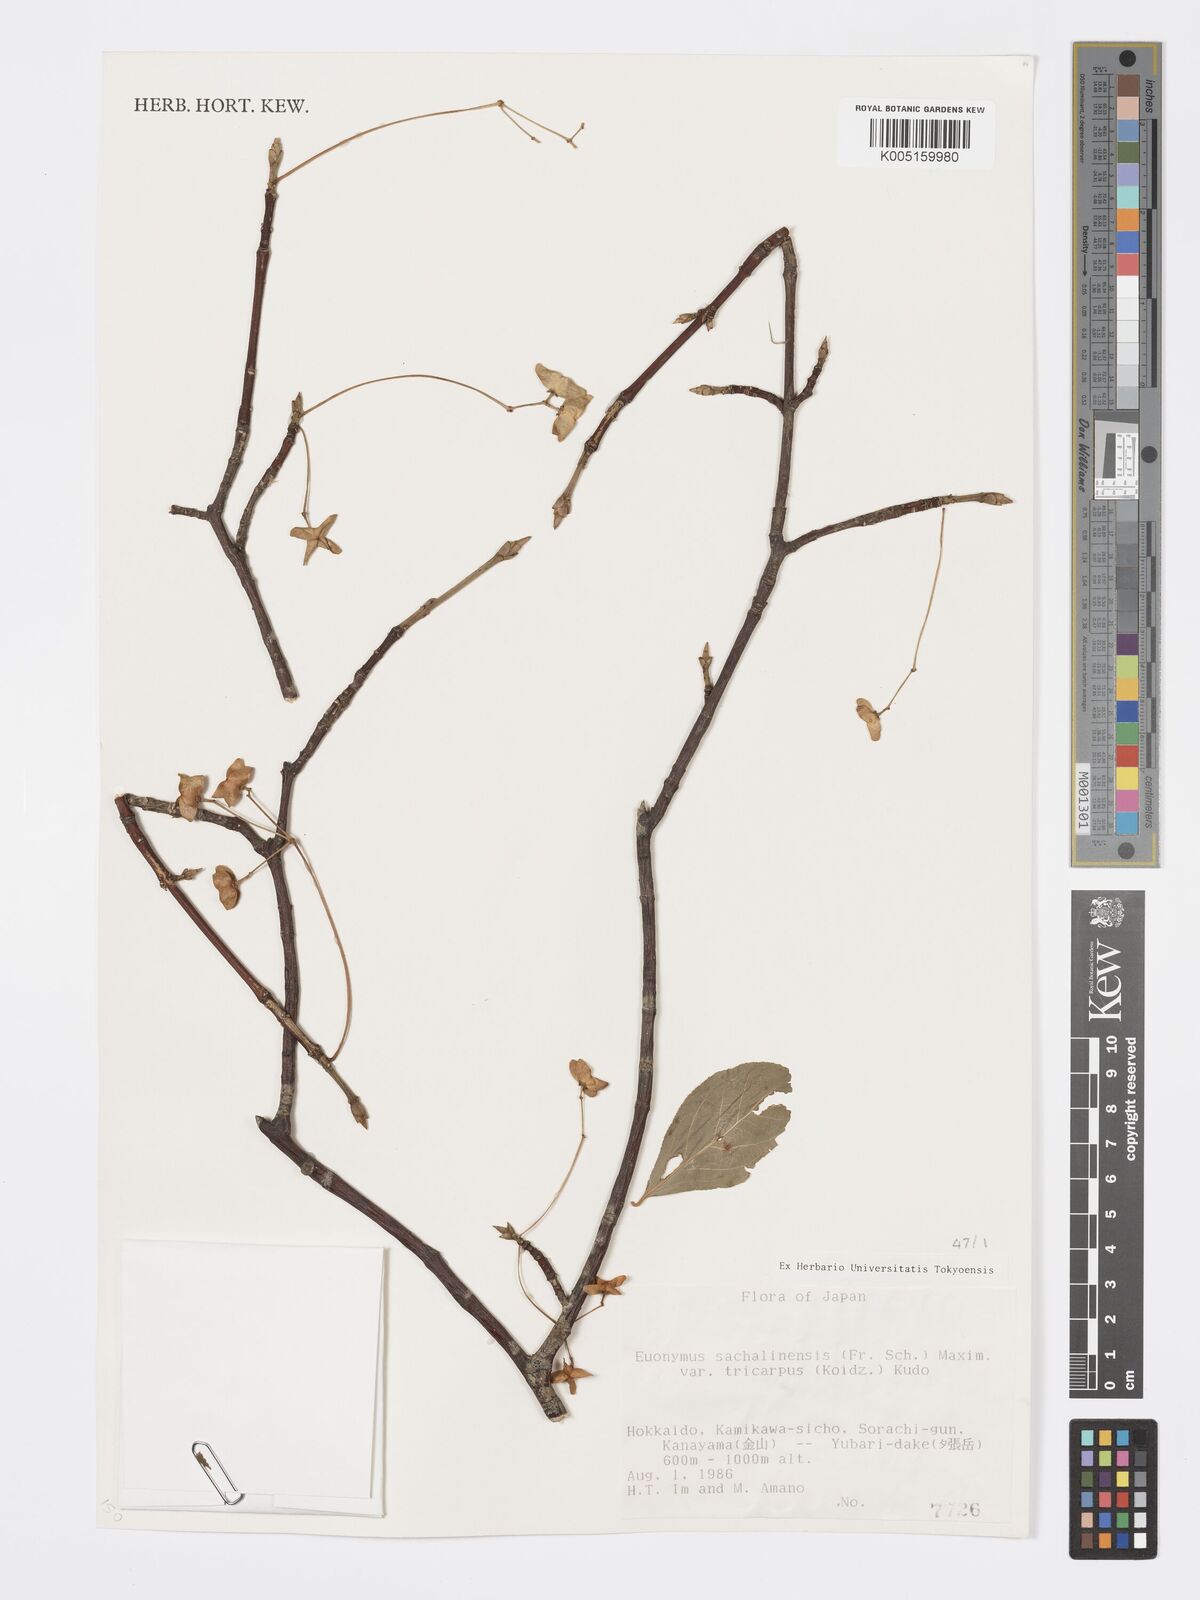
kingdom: Plantae
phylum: Tracheophyta
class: Magnoliopsida
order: Celastrales
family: Celastraceae
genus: Euonymus
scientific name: Euonymus sachalinensis
